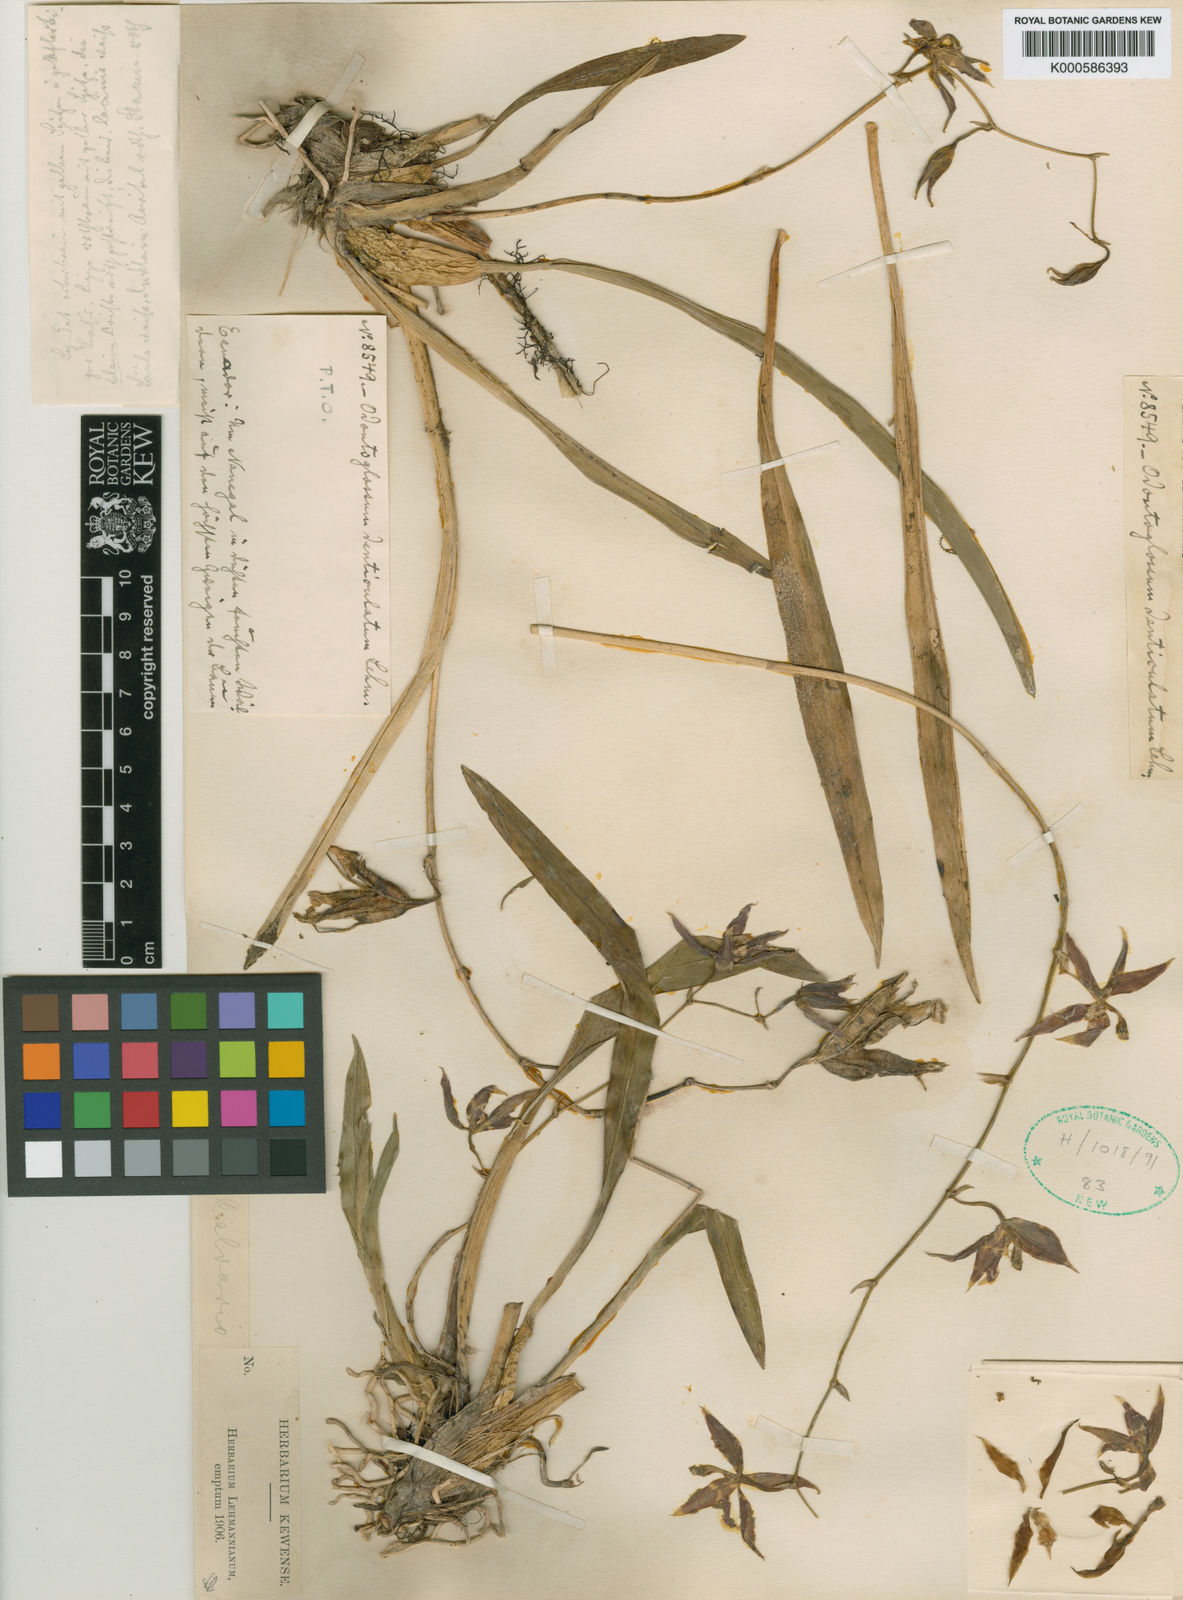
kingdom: Plantae
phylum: Tracheophyta
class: Liliopsida
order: Asparagales
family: Orchidaceae
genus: Oncidium
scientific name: Oncidium
